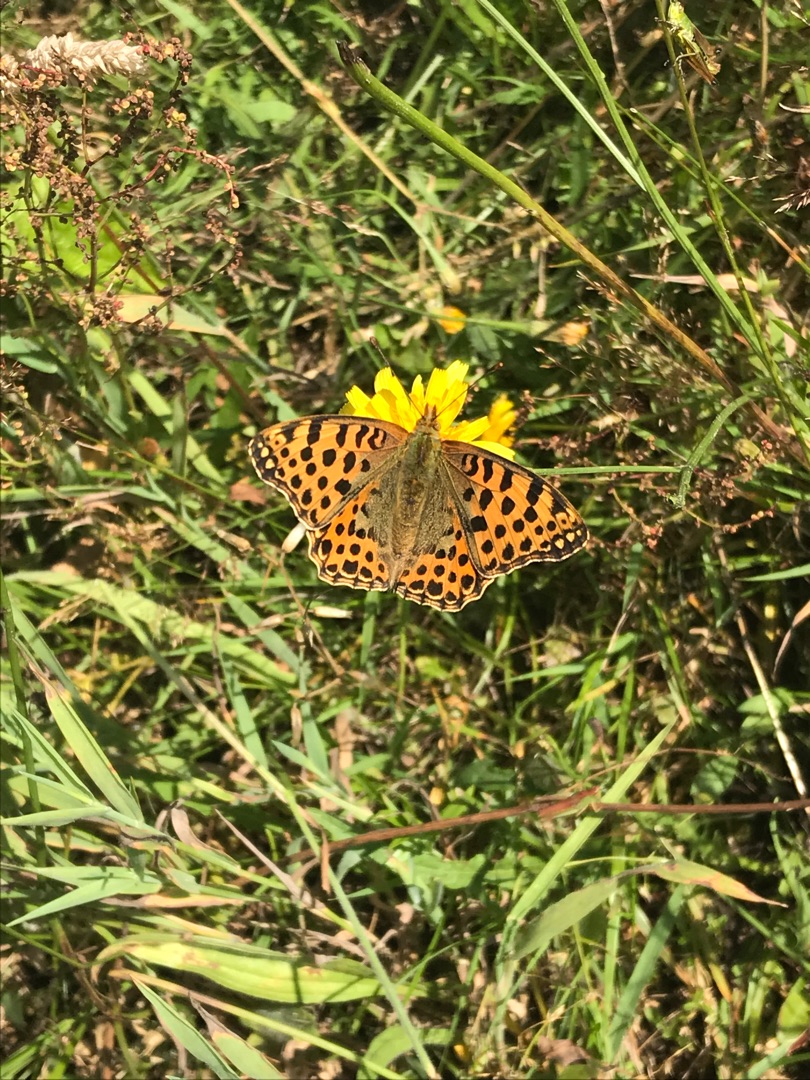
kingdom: Animalia
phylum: Arthropoda
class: Insecta
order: Lepidoptera
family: Nymphalidae
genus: Issoria
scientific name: Issoria lathonia
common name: Storplettet perlemorsommerfugl
